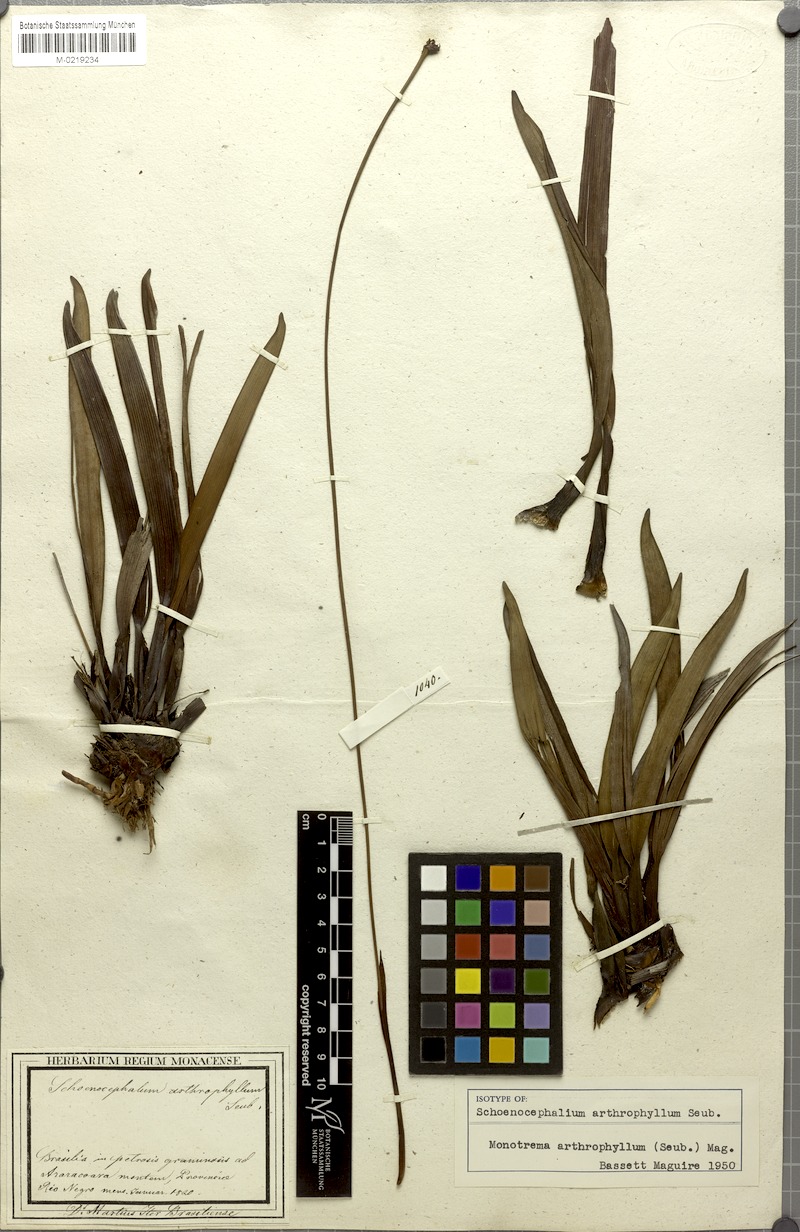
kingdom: Plantae
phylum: Tracheophyta
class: Liliopsida
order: Poales
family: Rapateaceae
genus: Monotrema
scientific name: Monotrema arthrophyllum
